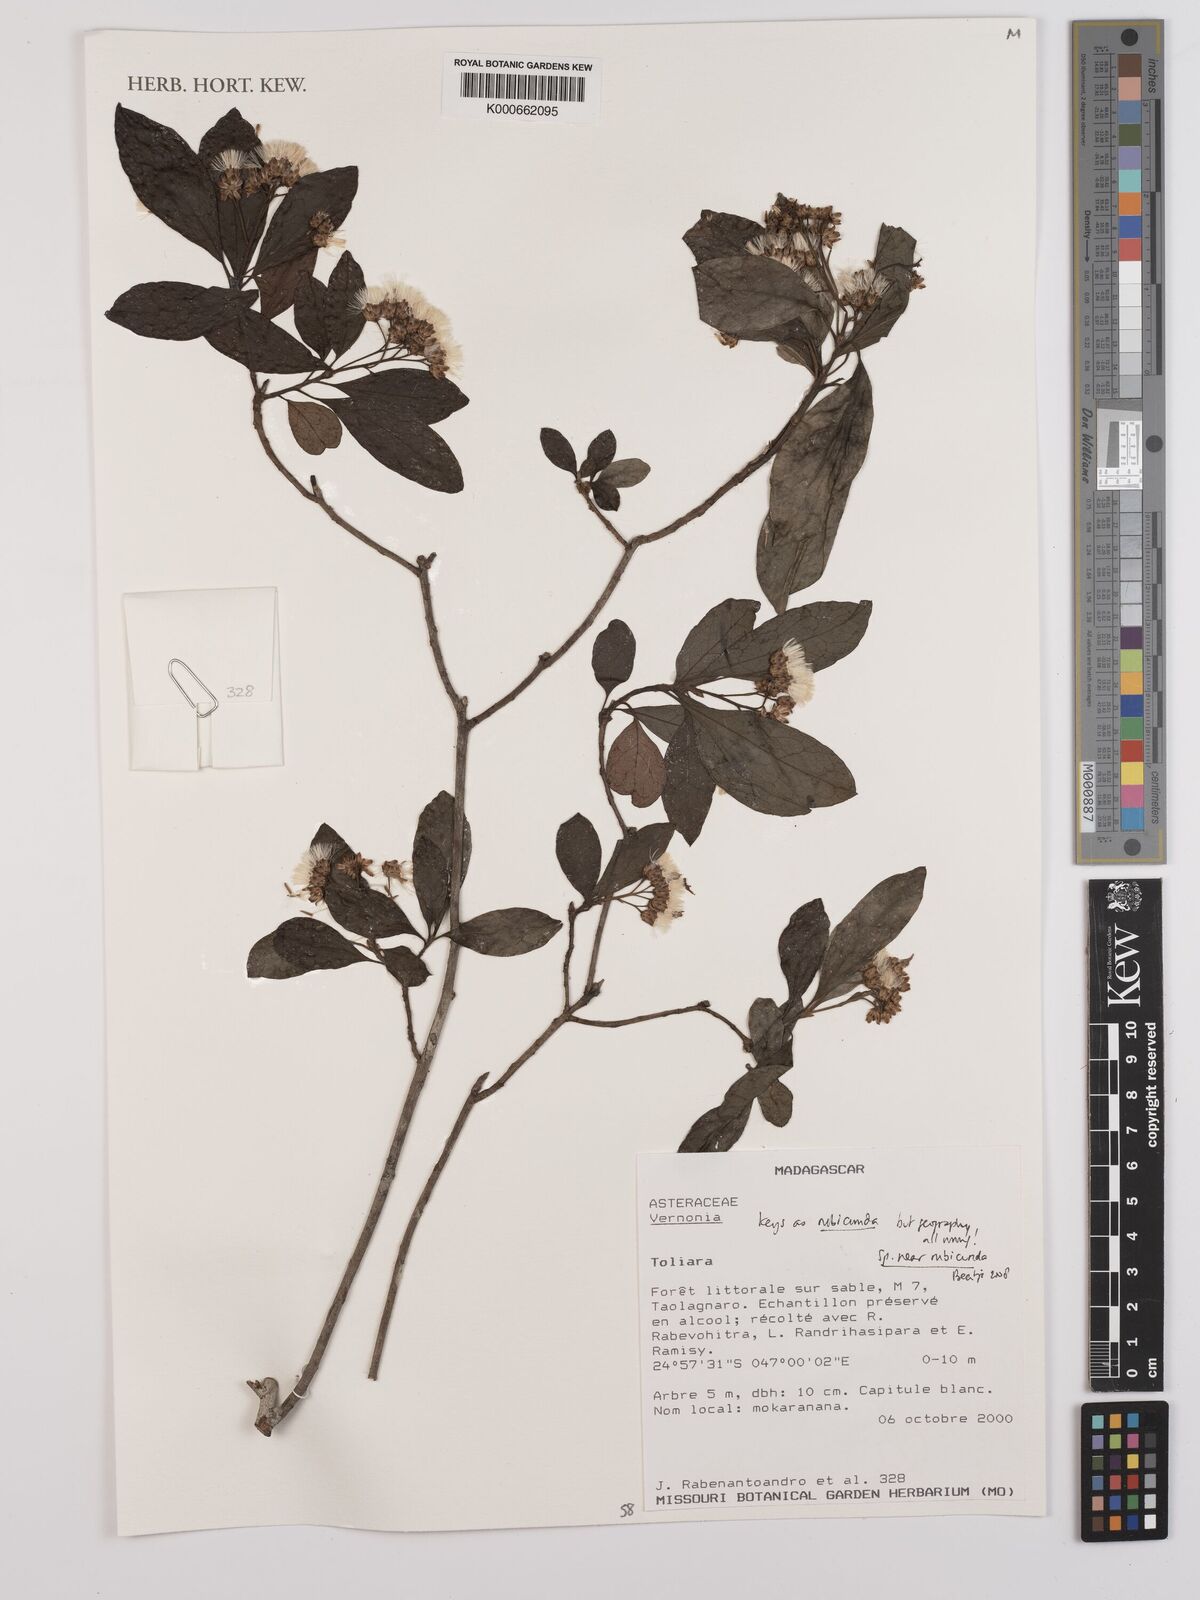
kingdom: Plantae
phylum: Tracheophyta
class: Magnoliopsida
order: Asterales
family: Asteraceae
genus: Jeffreycia
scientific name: Jeffreycia hildebrandtii
